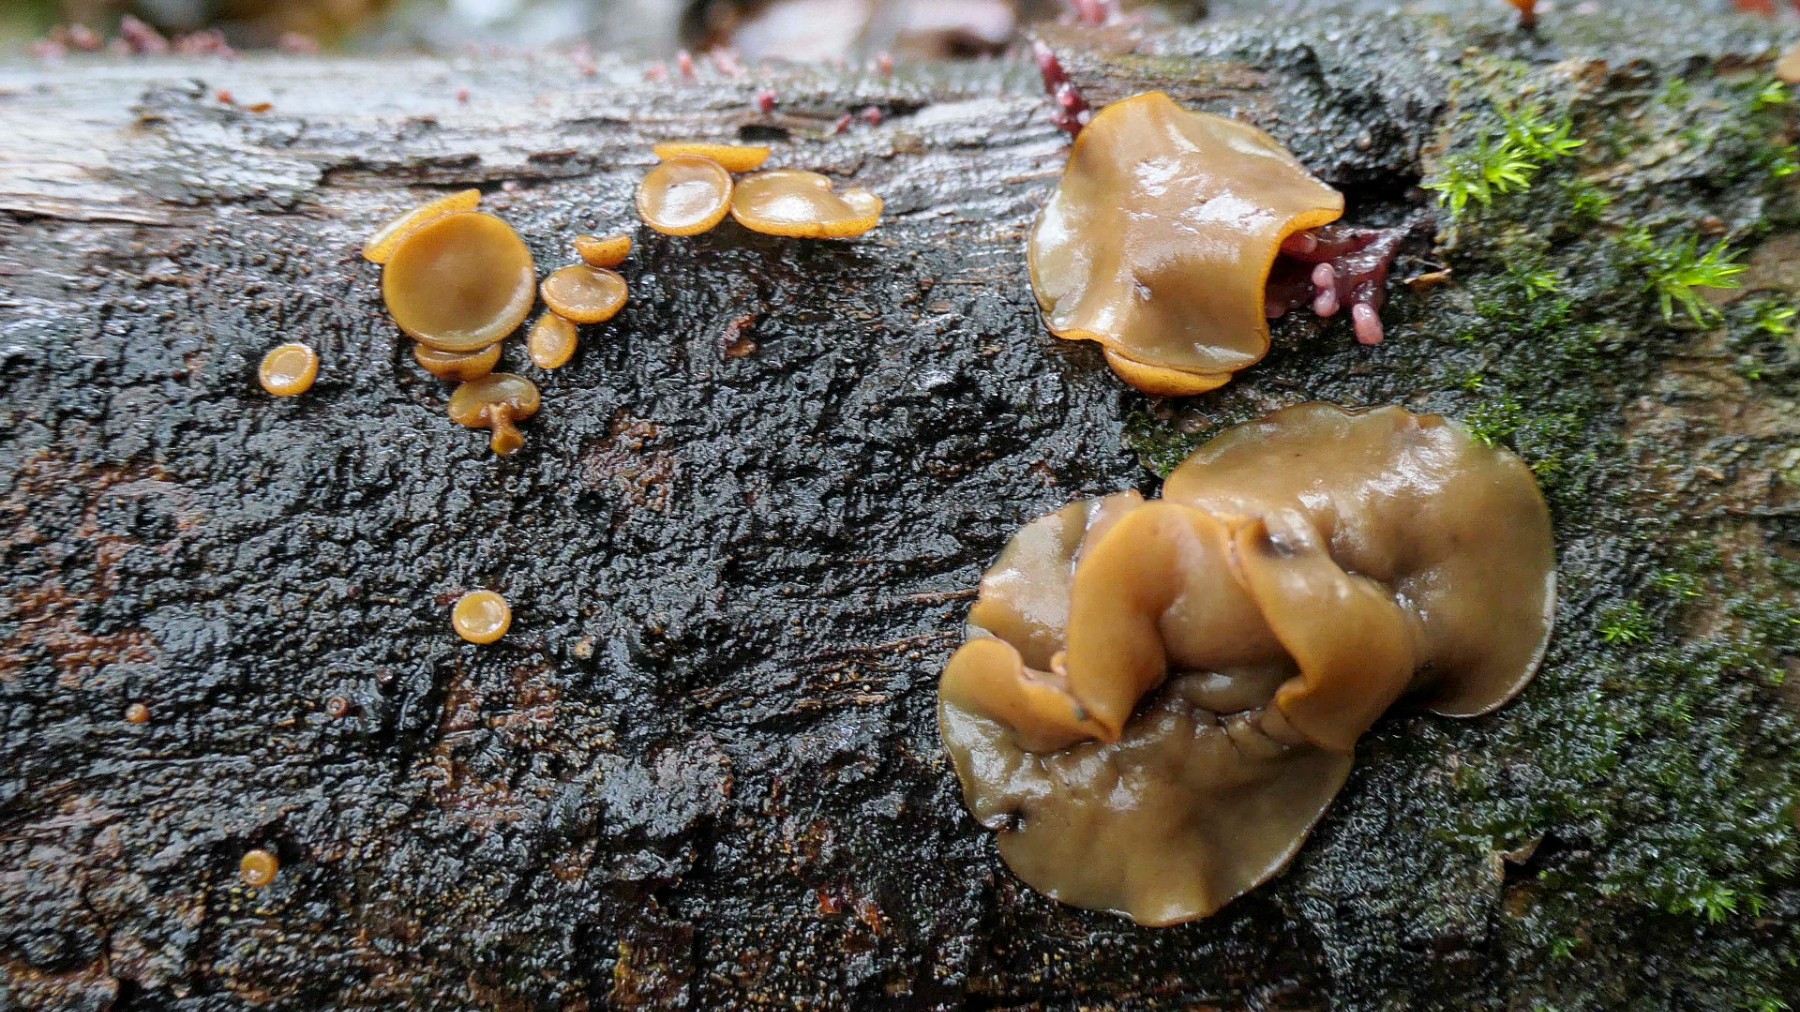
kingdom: Fungi
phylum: Ascomycota
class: Leotiomycetes
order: Helotiales
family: Rutstroemiaceae
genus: Rutstroemia
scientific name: Rutstroemia firma
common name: gren-brunskive
